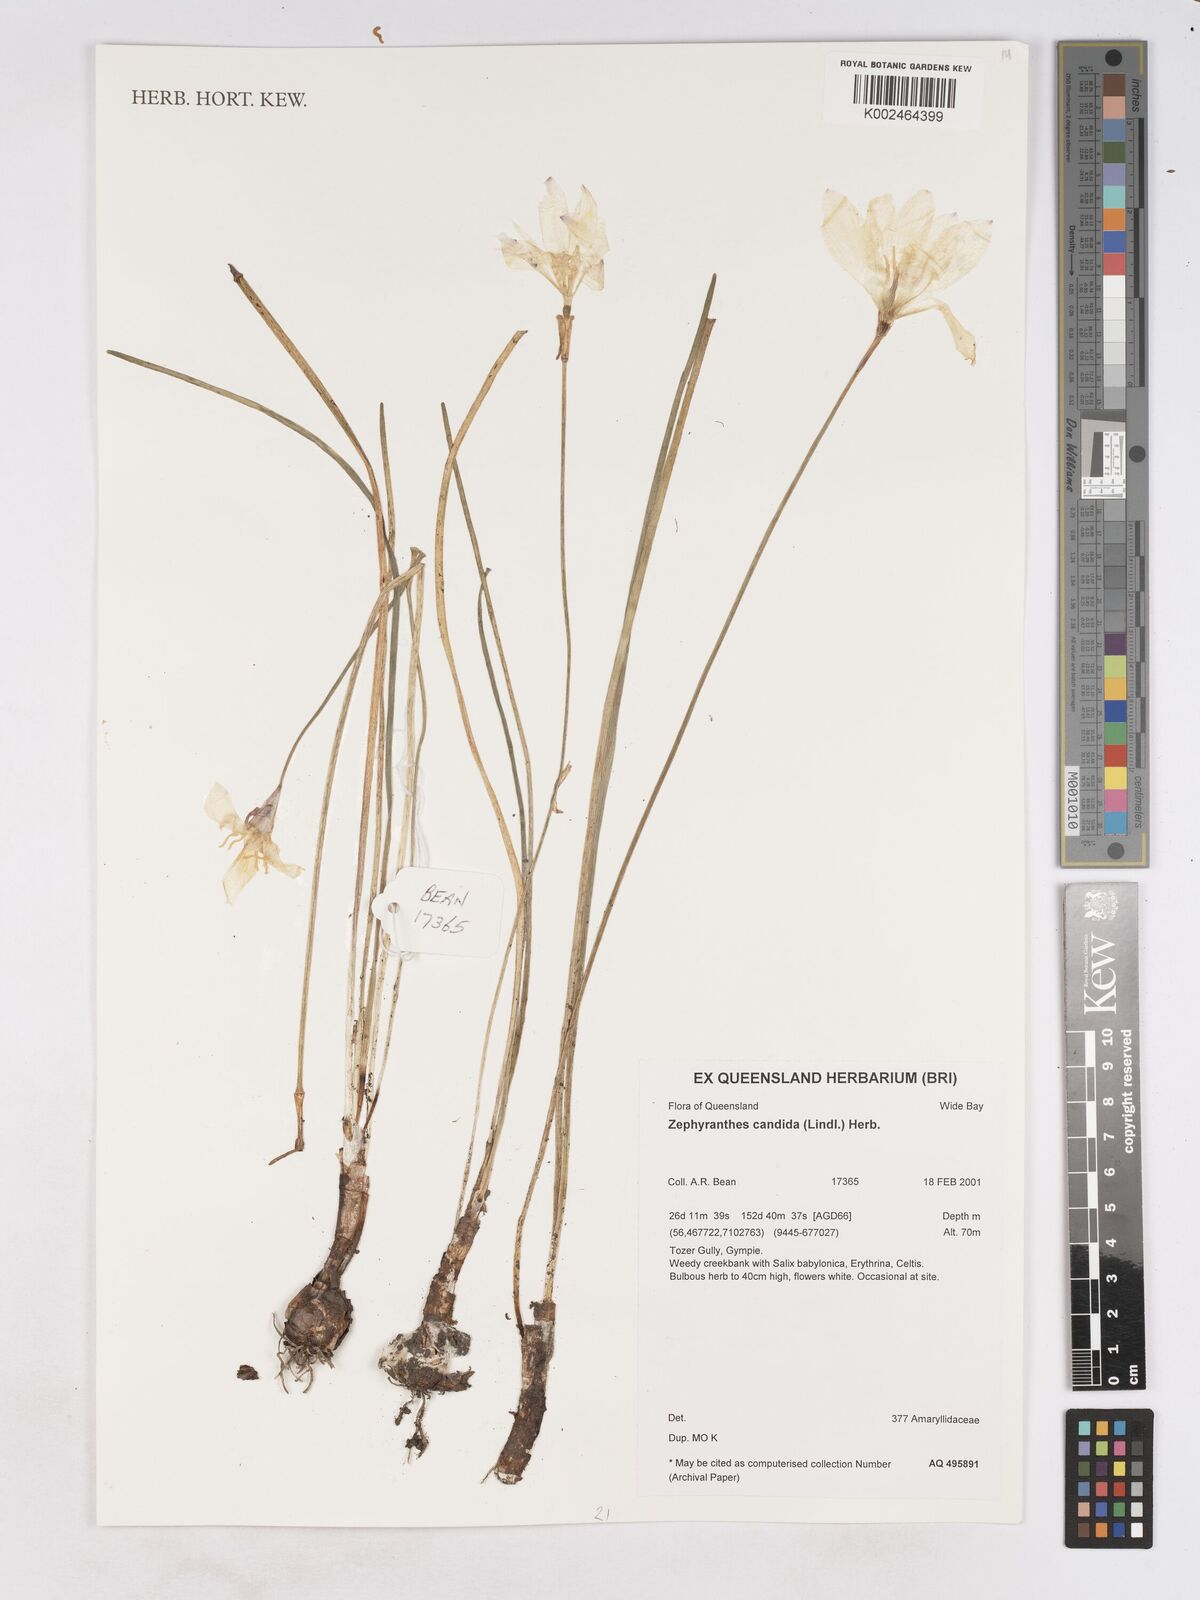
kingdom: Plantae
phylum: Tracheophyta
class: Liliopsida
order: Asparagales
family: Amaryllidaceae
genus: Zephyranthes
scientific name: Zephyranthes candida
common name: Autumn zephyrlily
